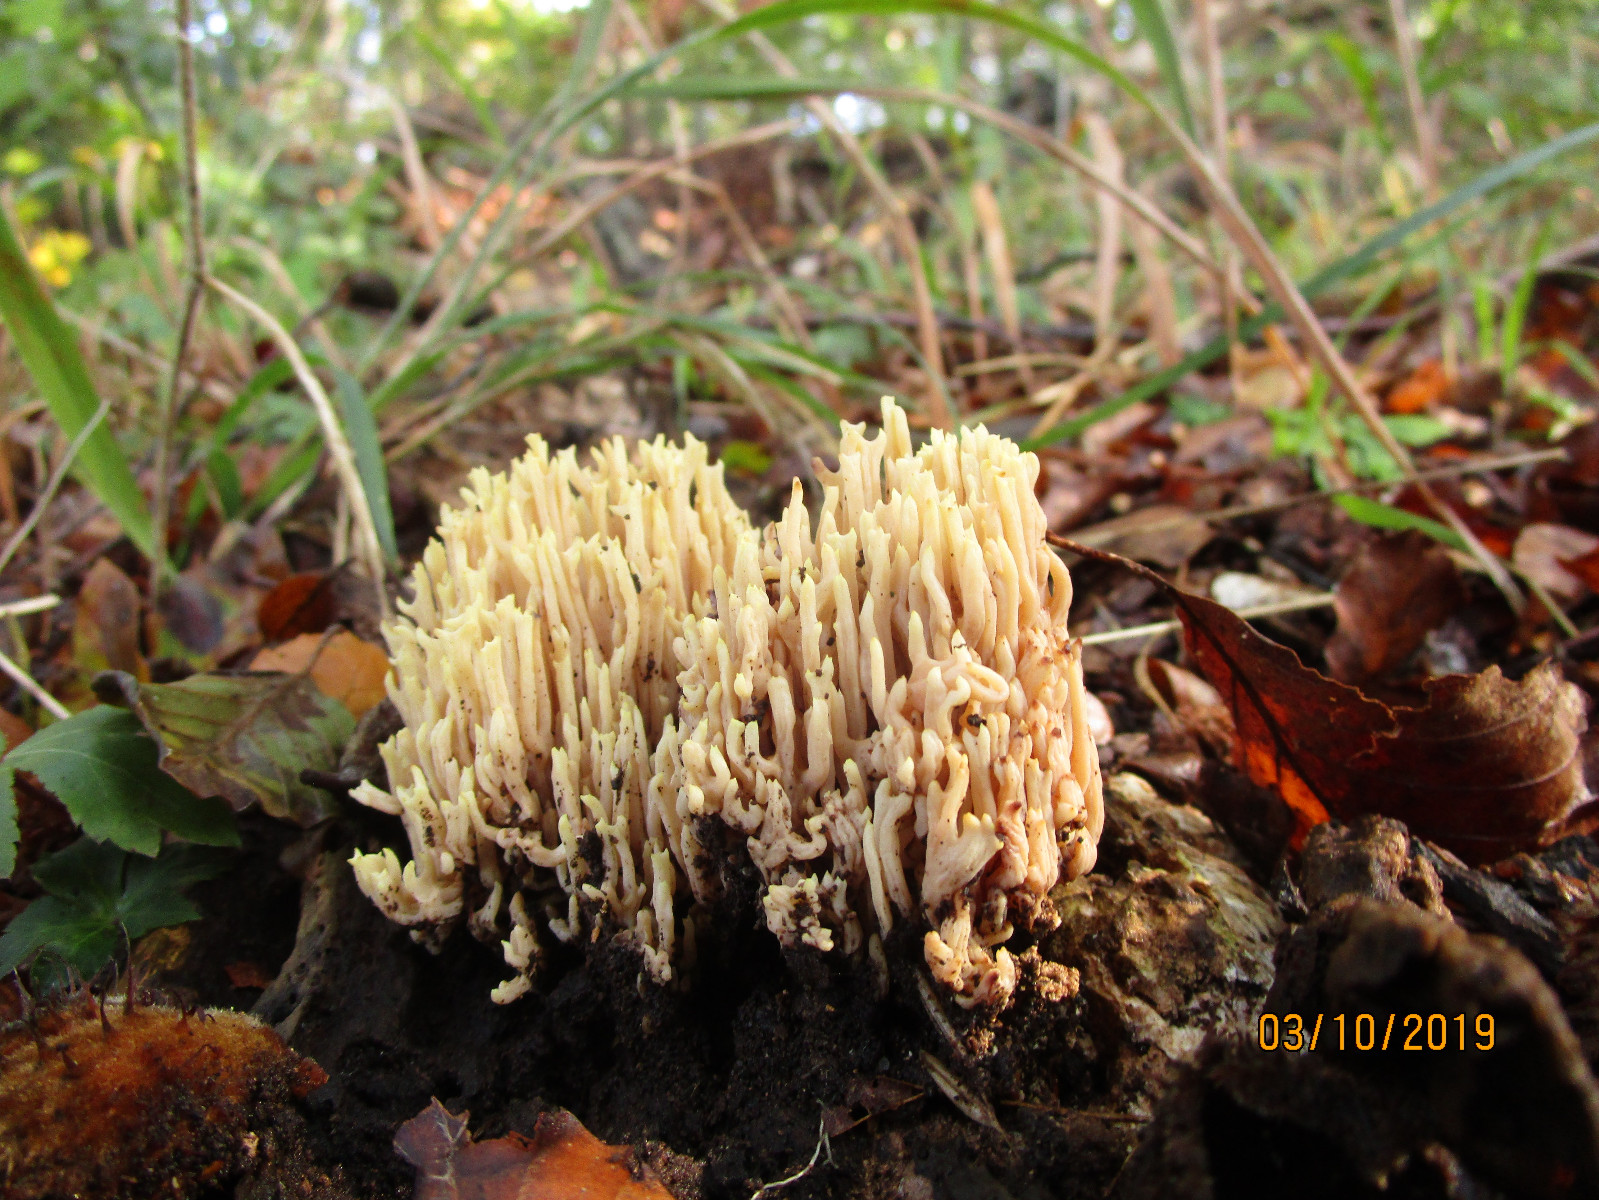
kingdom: Fungi
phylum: Basidiomycota
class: Agaricomycetes
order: Gomphales
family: Gomphaceae
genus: Ramaria
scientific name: Ramaria stricta
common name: rank koralsvamp
